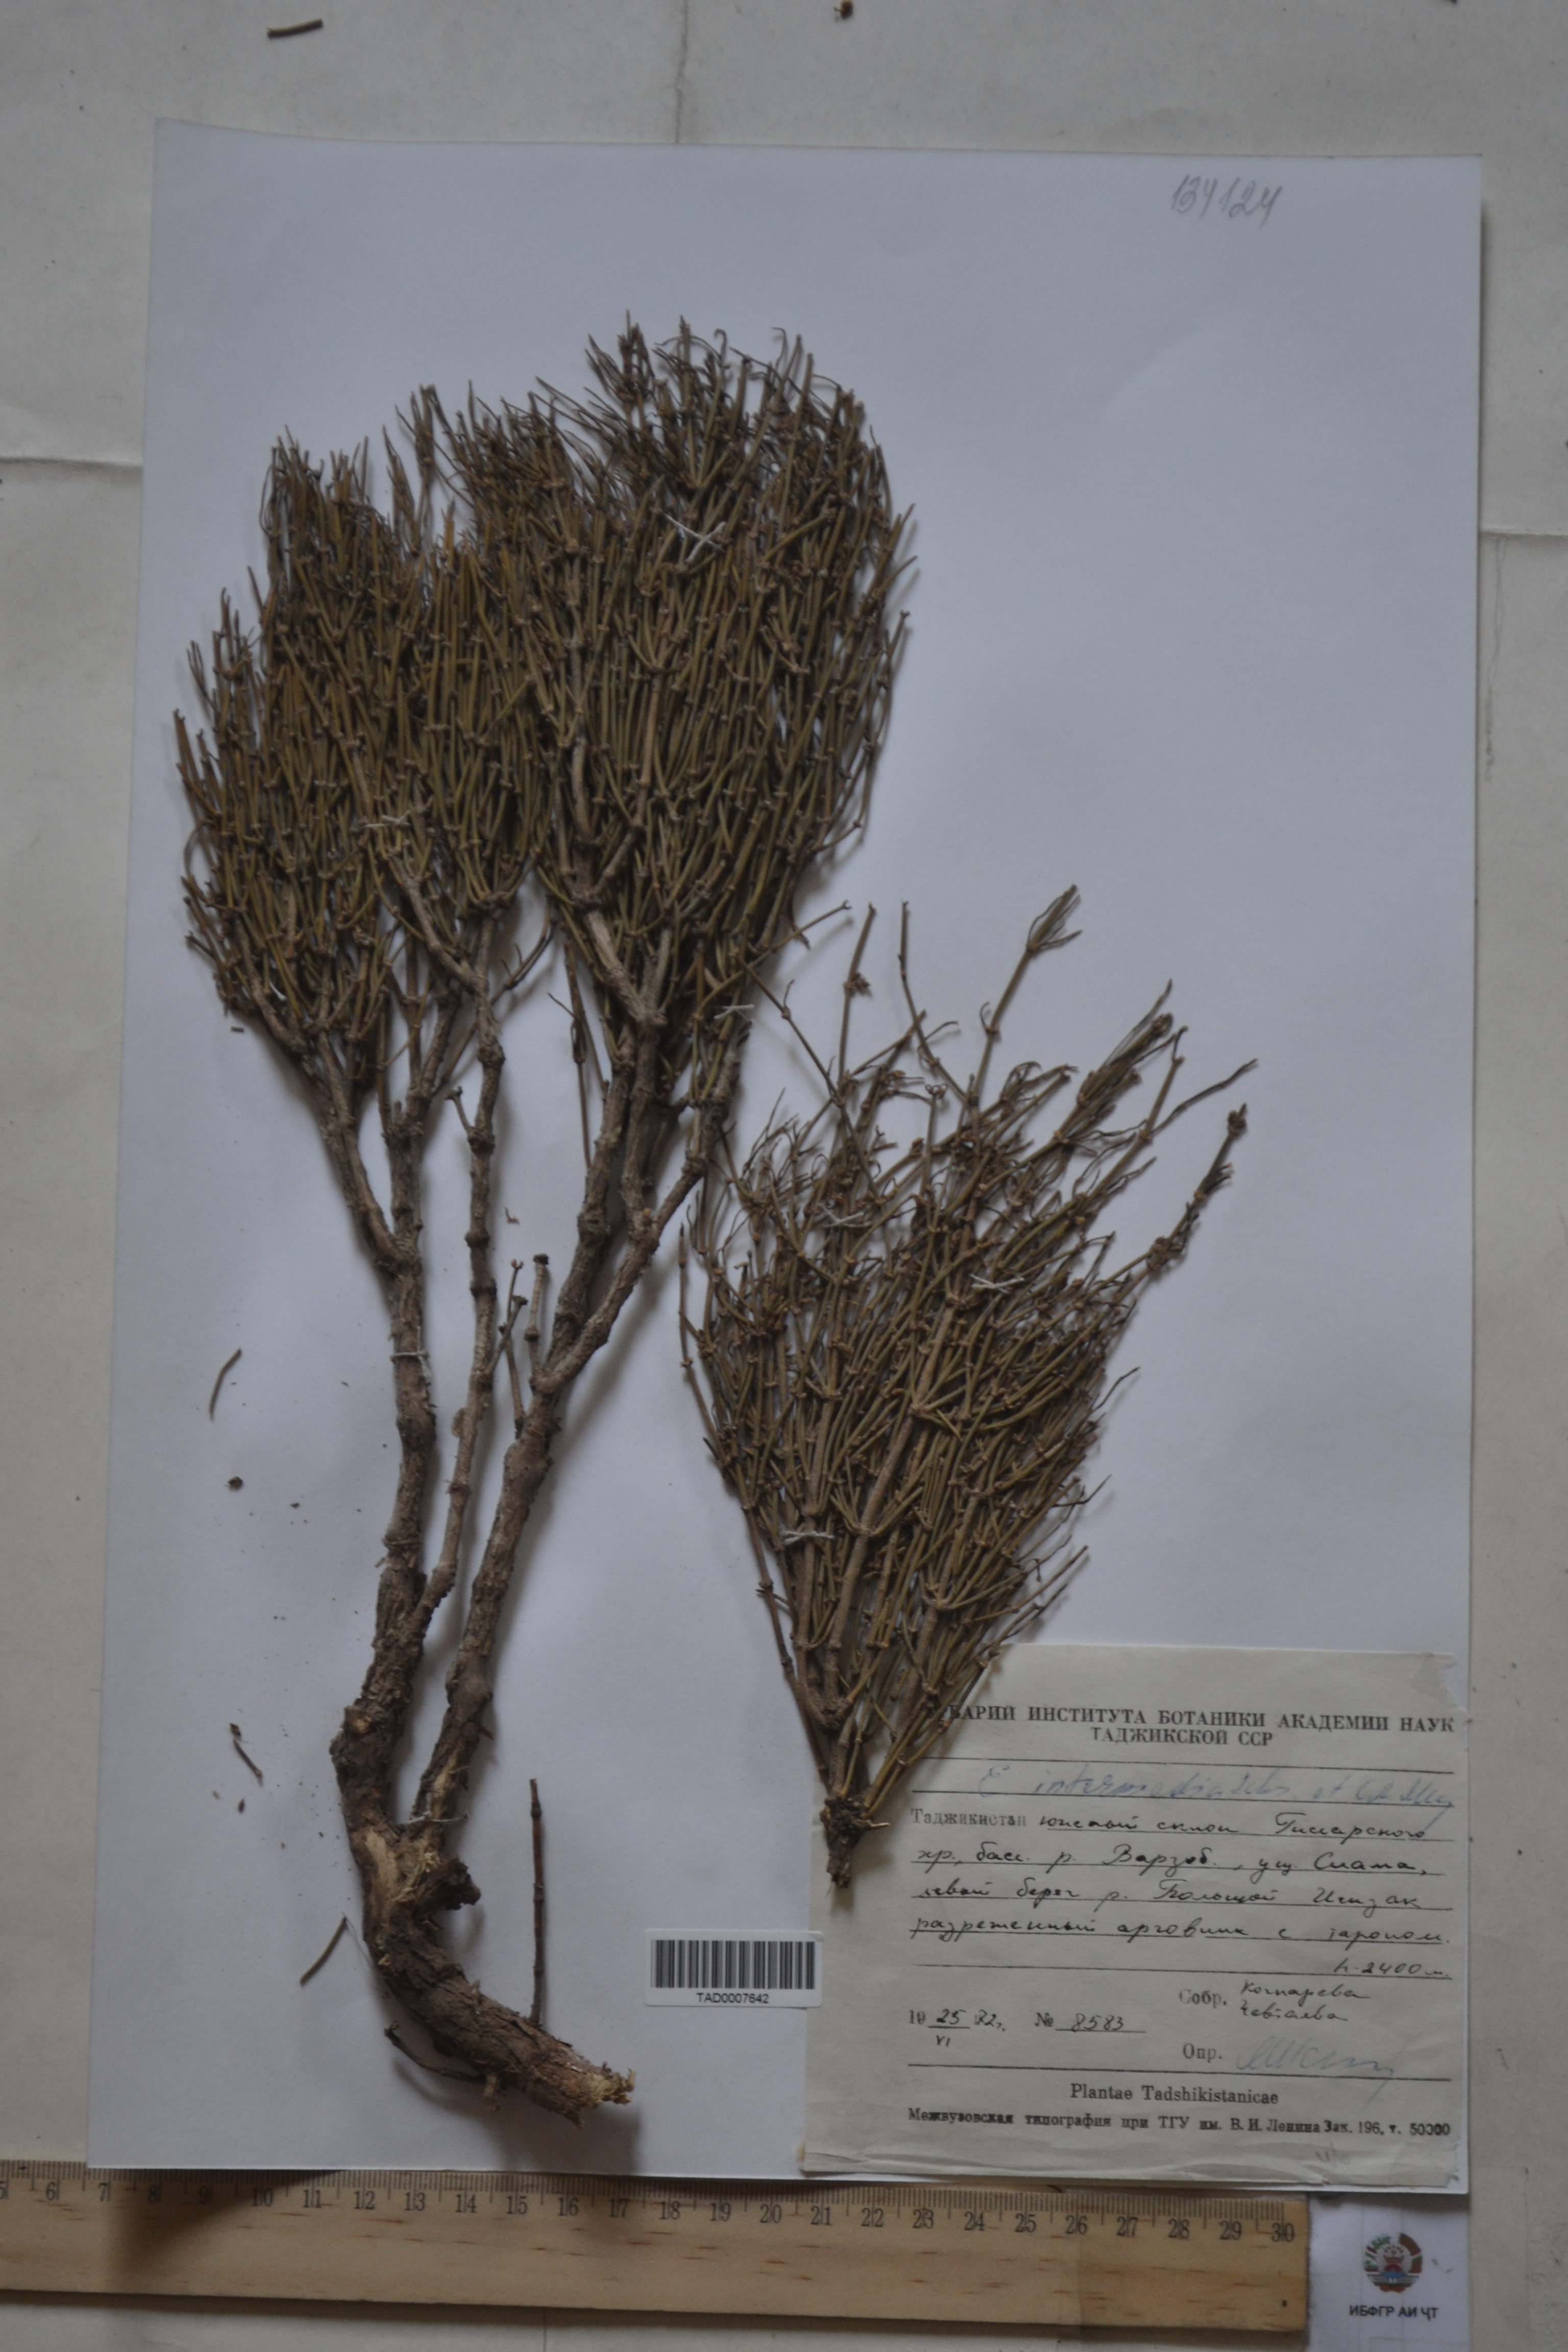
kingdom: Plantae
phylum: Tracheophyta
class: Gnetopsida
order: Ephedrales
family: Ephedraceae
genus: Ephedra
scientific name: Ephedra intermedia
